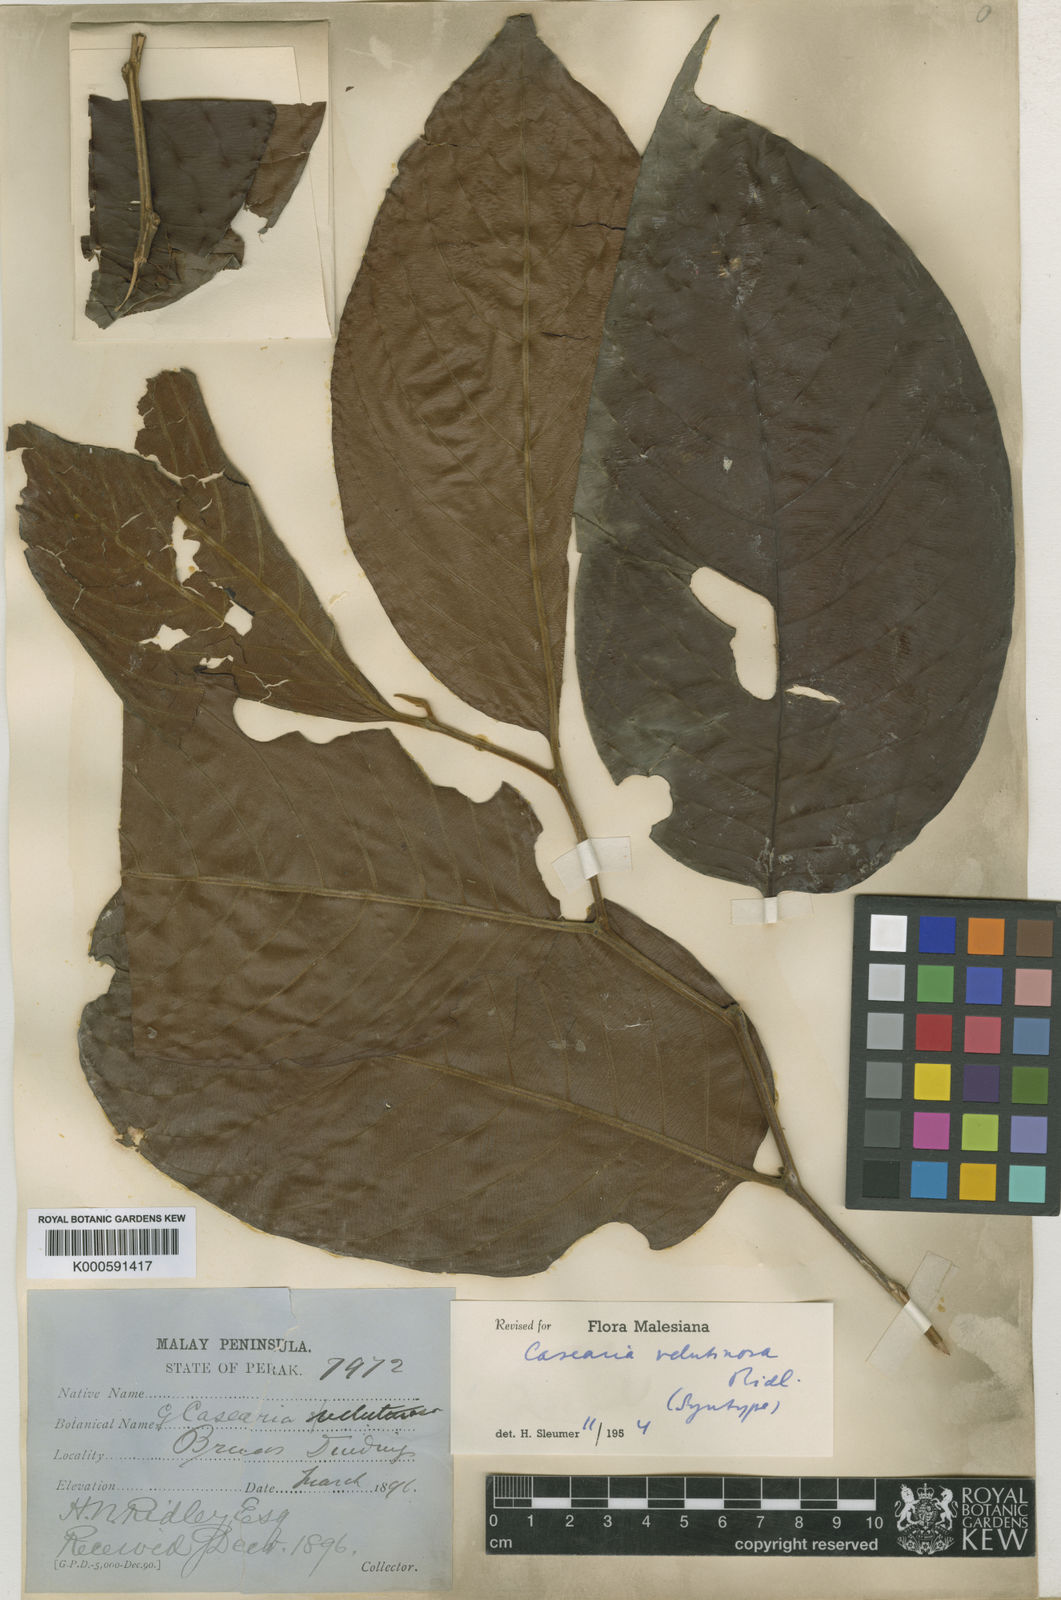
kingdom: Plantae
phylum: Tracheophyta
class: Magnoliopsida
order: Malpighiales
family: Salicaceae
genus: Casearia
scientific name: Casearia velutinosa
